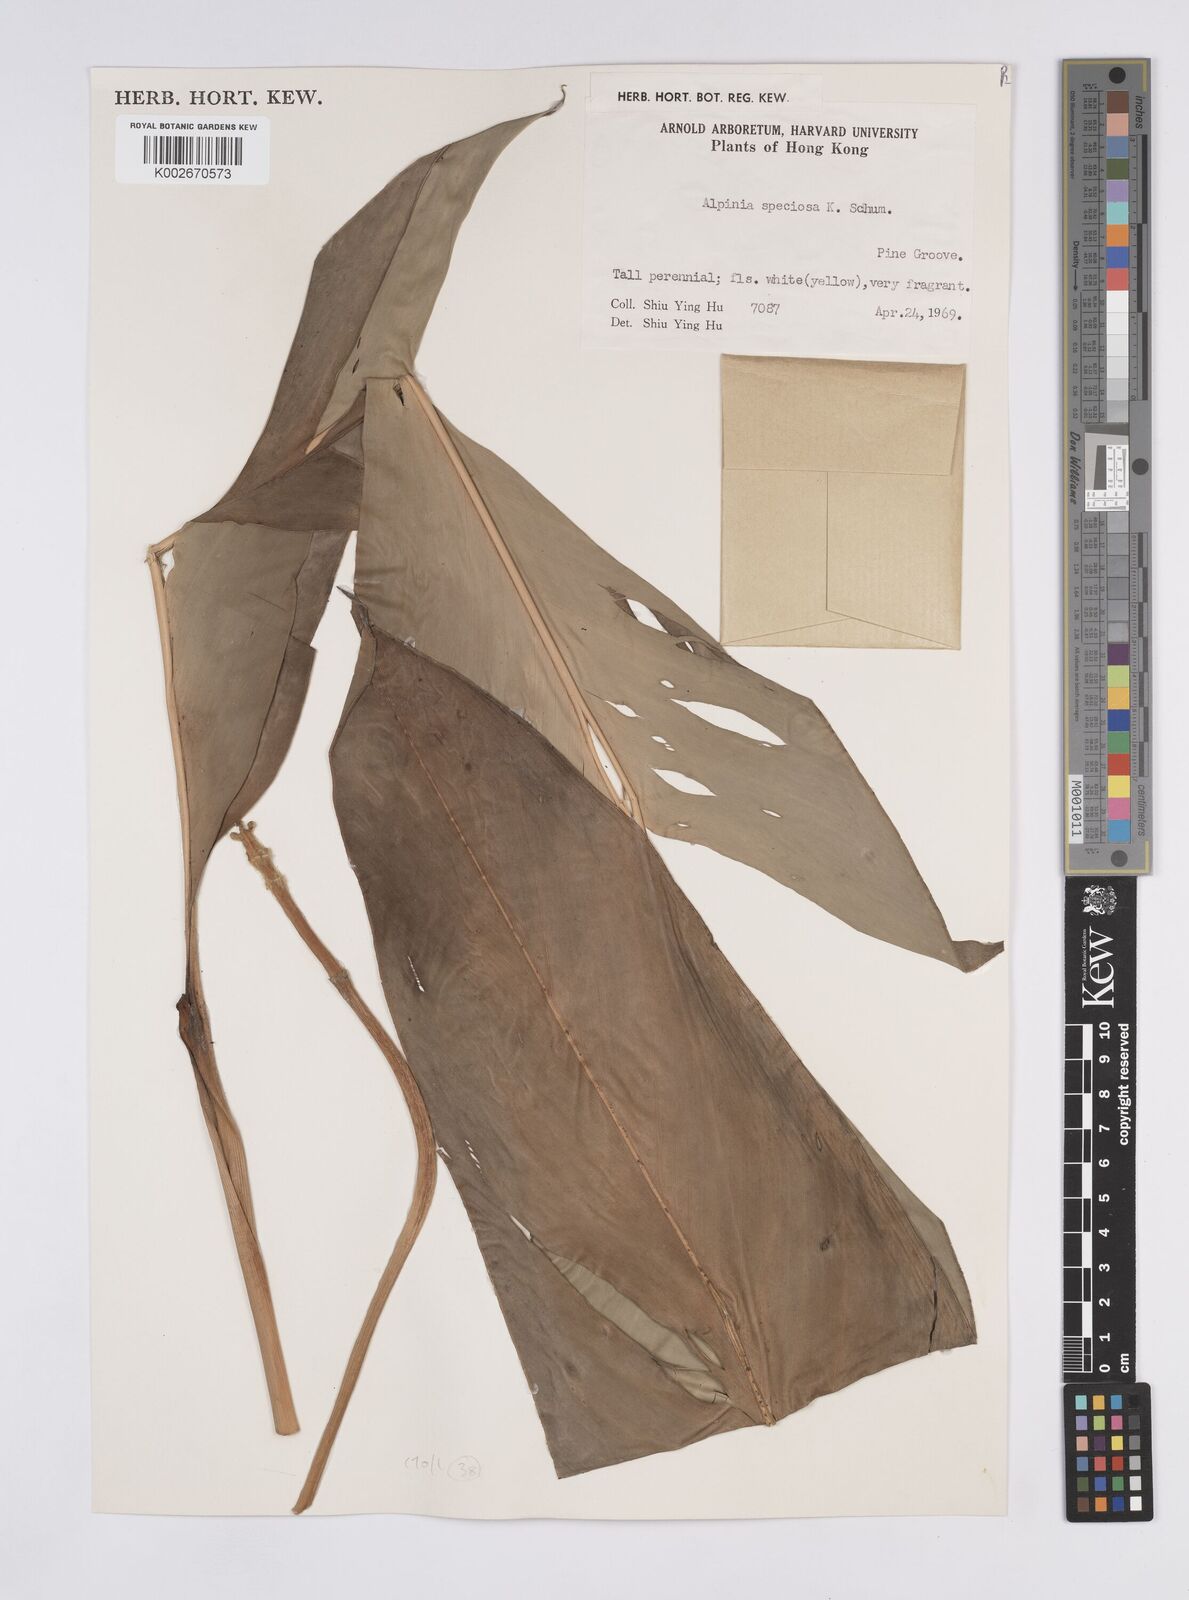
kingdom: Plantae
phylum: Tracheophyta
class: Liliopsida
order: Zingiberales
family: Zingiberaceae
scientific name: Zingiberaceae
